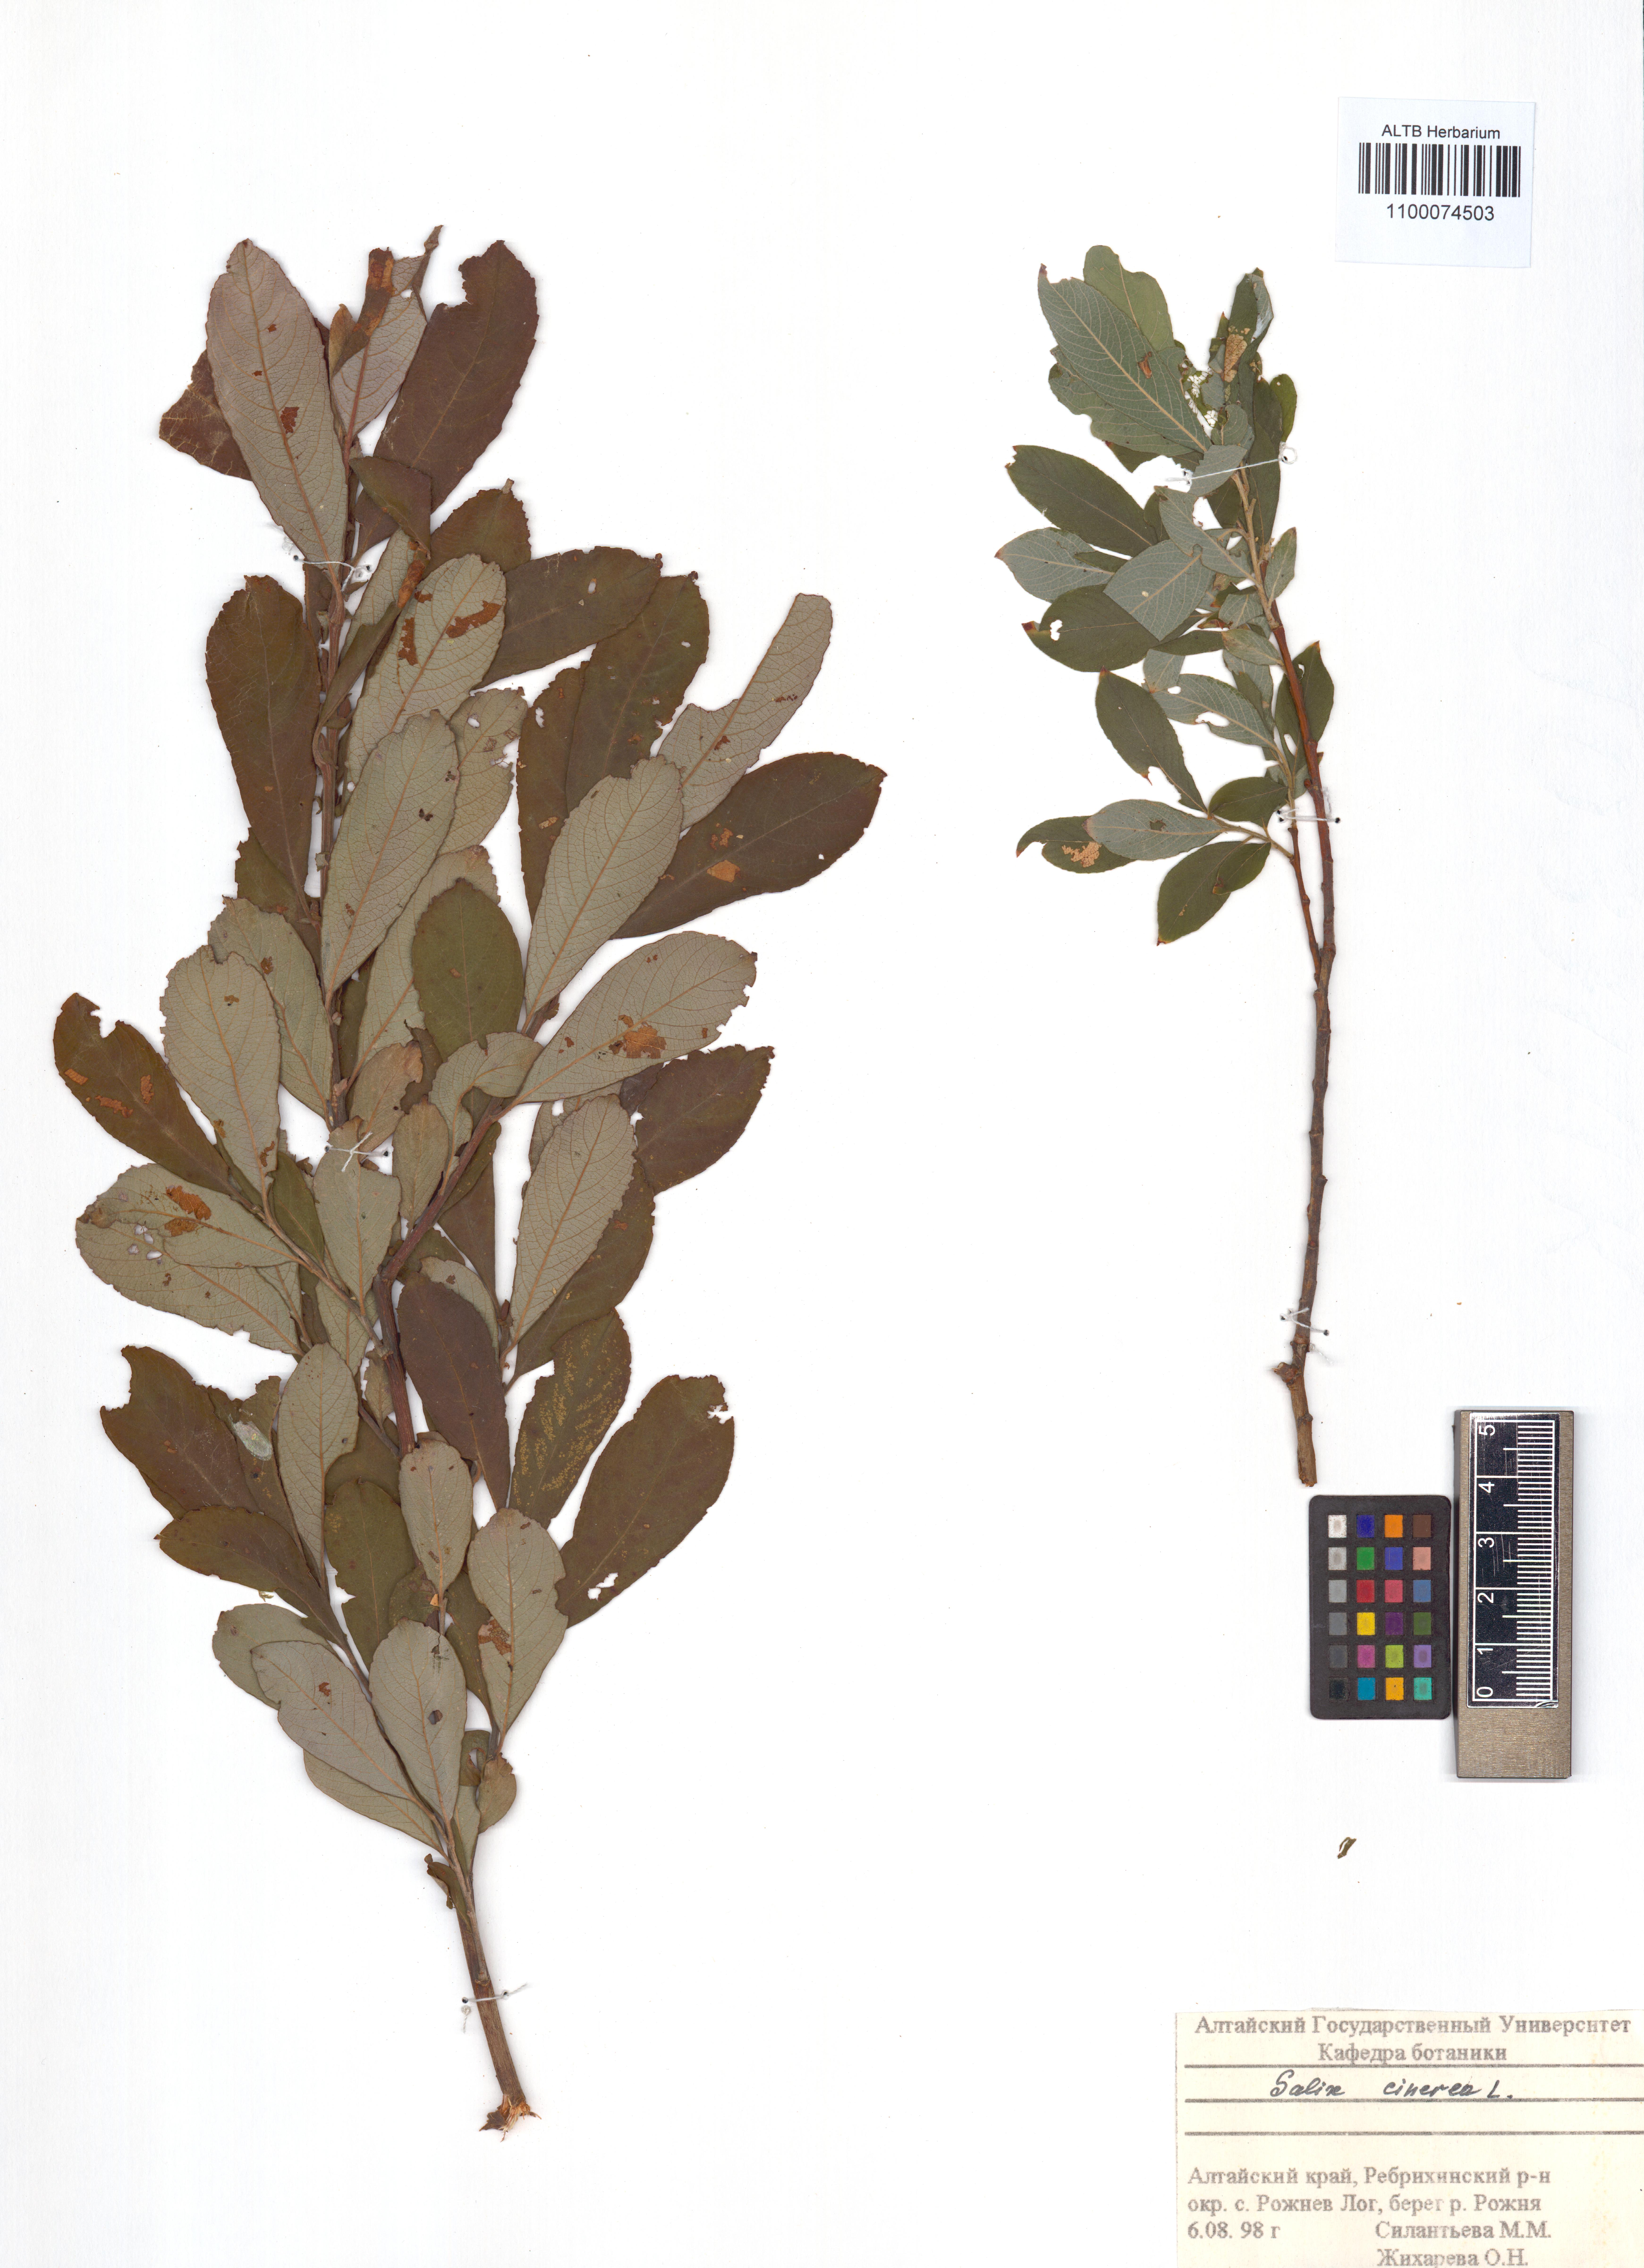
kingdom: Plantae
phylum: Tracheophyta
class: Magnoliopsida
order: Malpighiales
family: Salicaceae
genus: Salix
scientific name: Salix cinerea
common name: Common sallow
